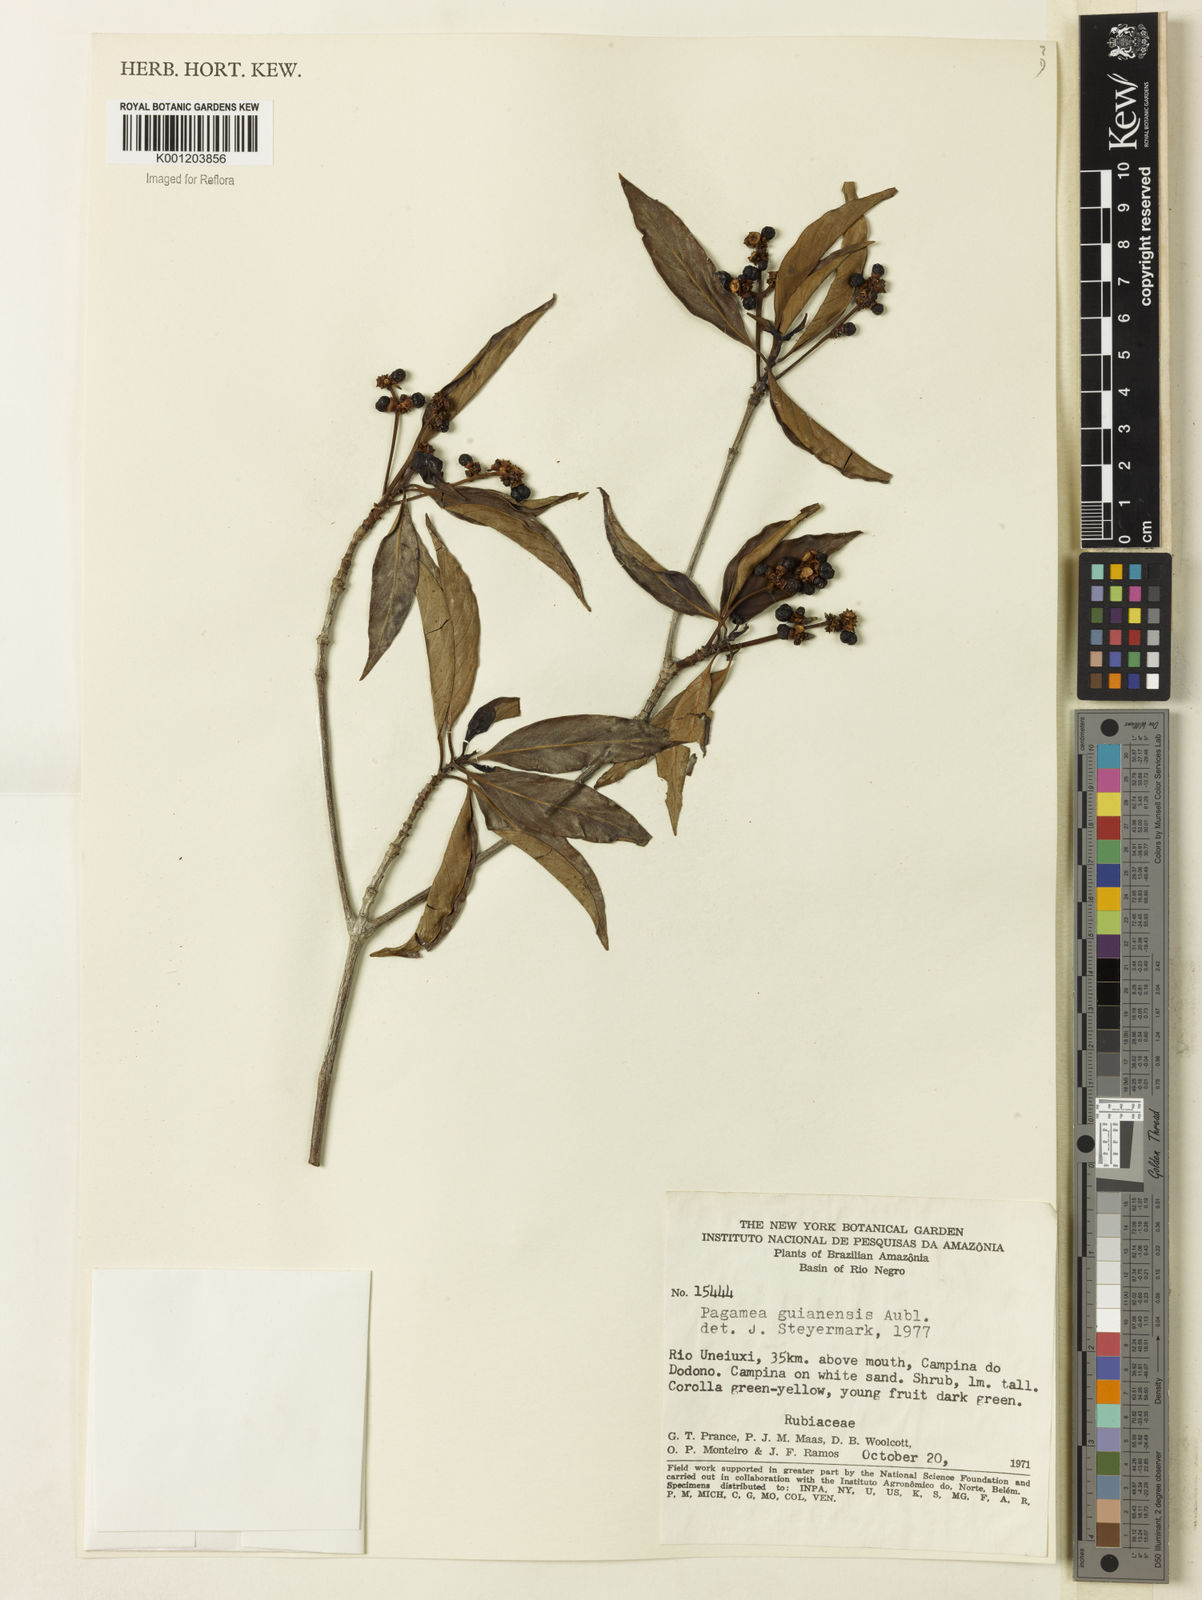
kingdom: Plantae
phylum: Tracheophyta
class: Magnoliopsida
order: Gentianales
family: Rubiaceae
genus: Pagamea
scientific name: Pagamea guianensis
